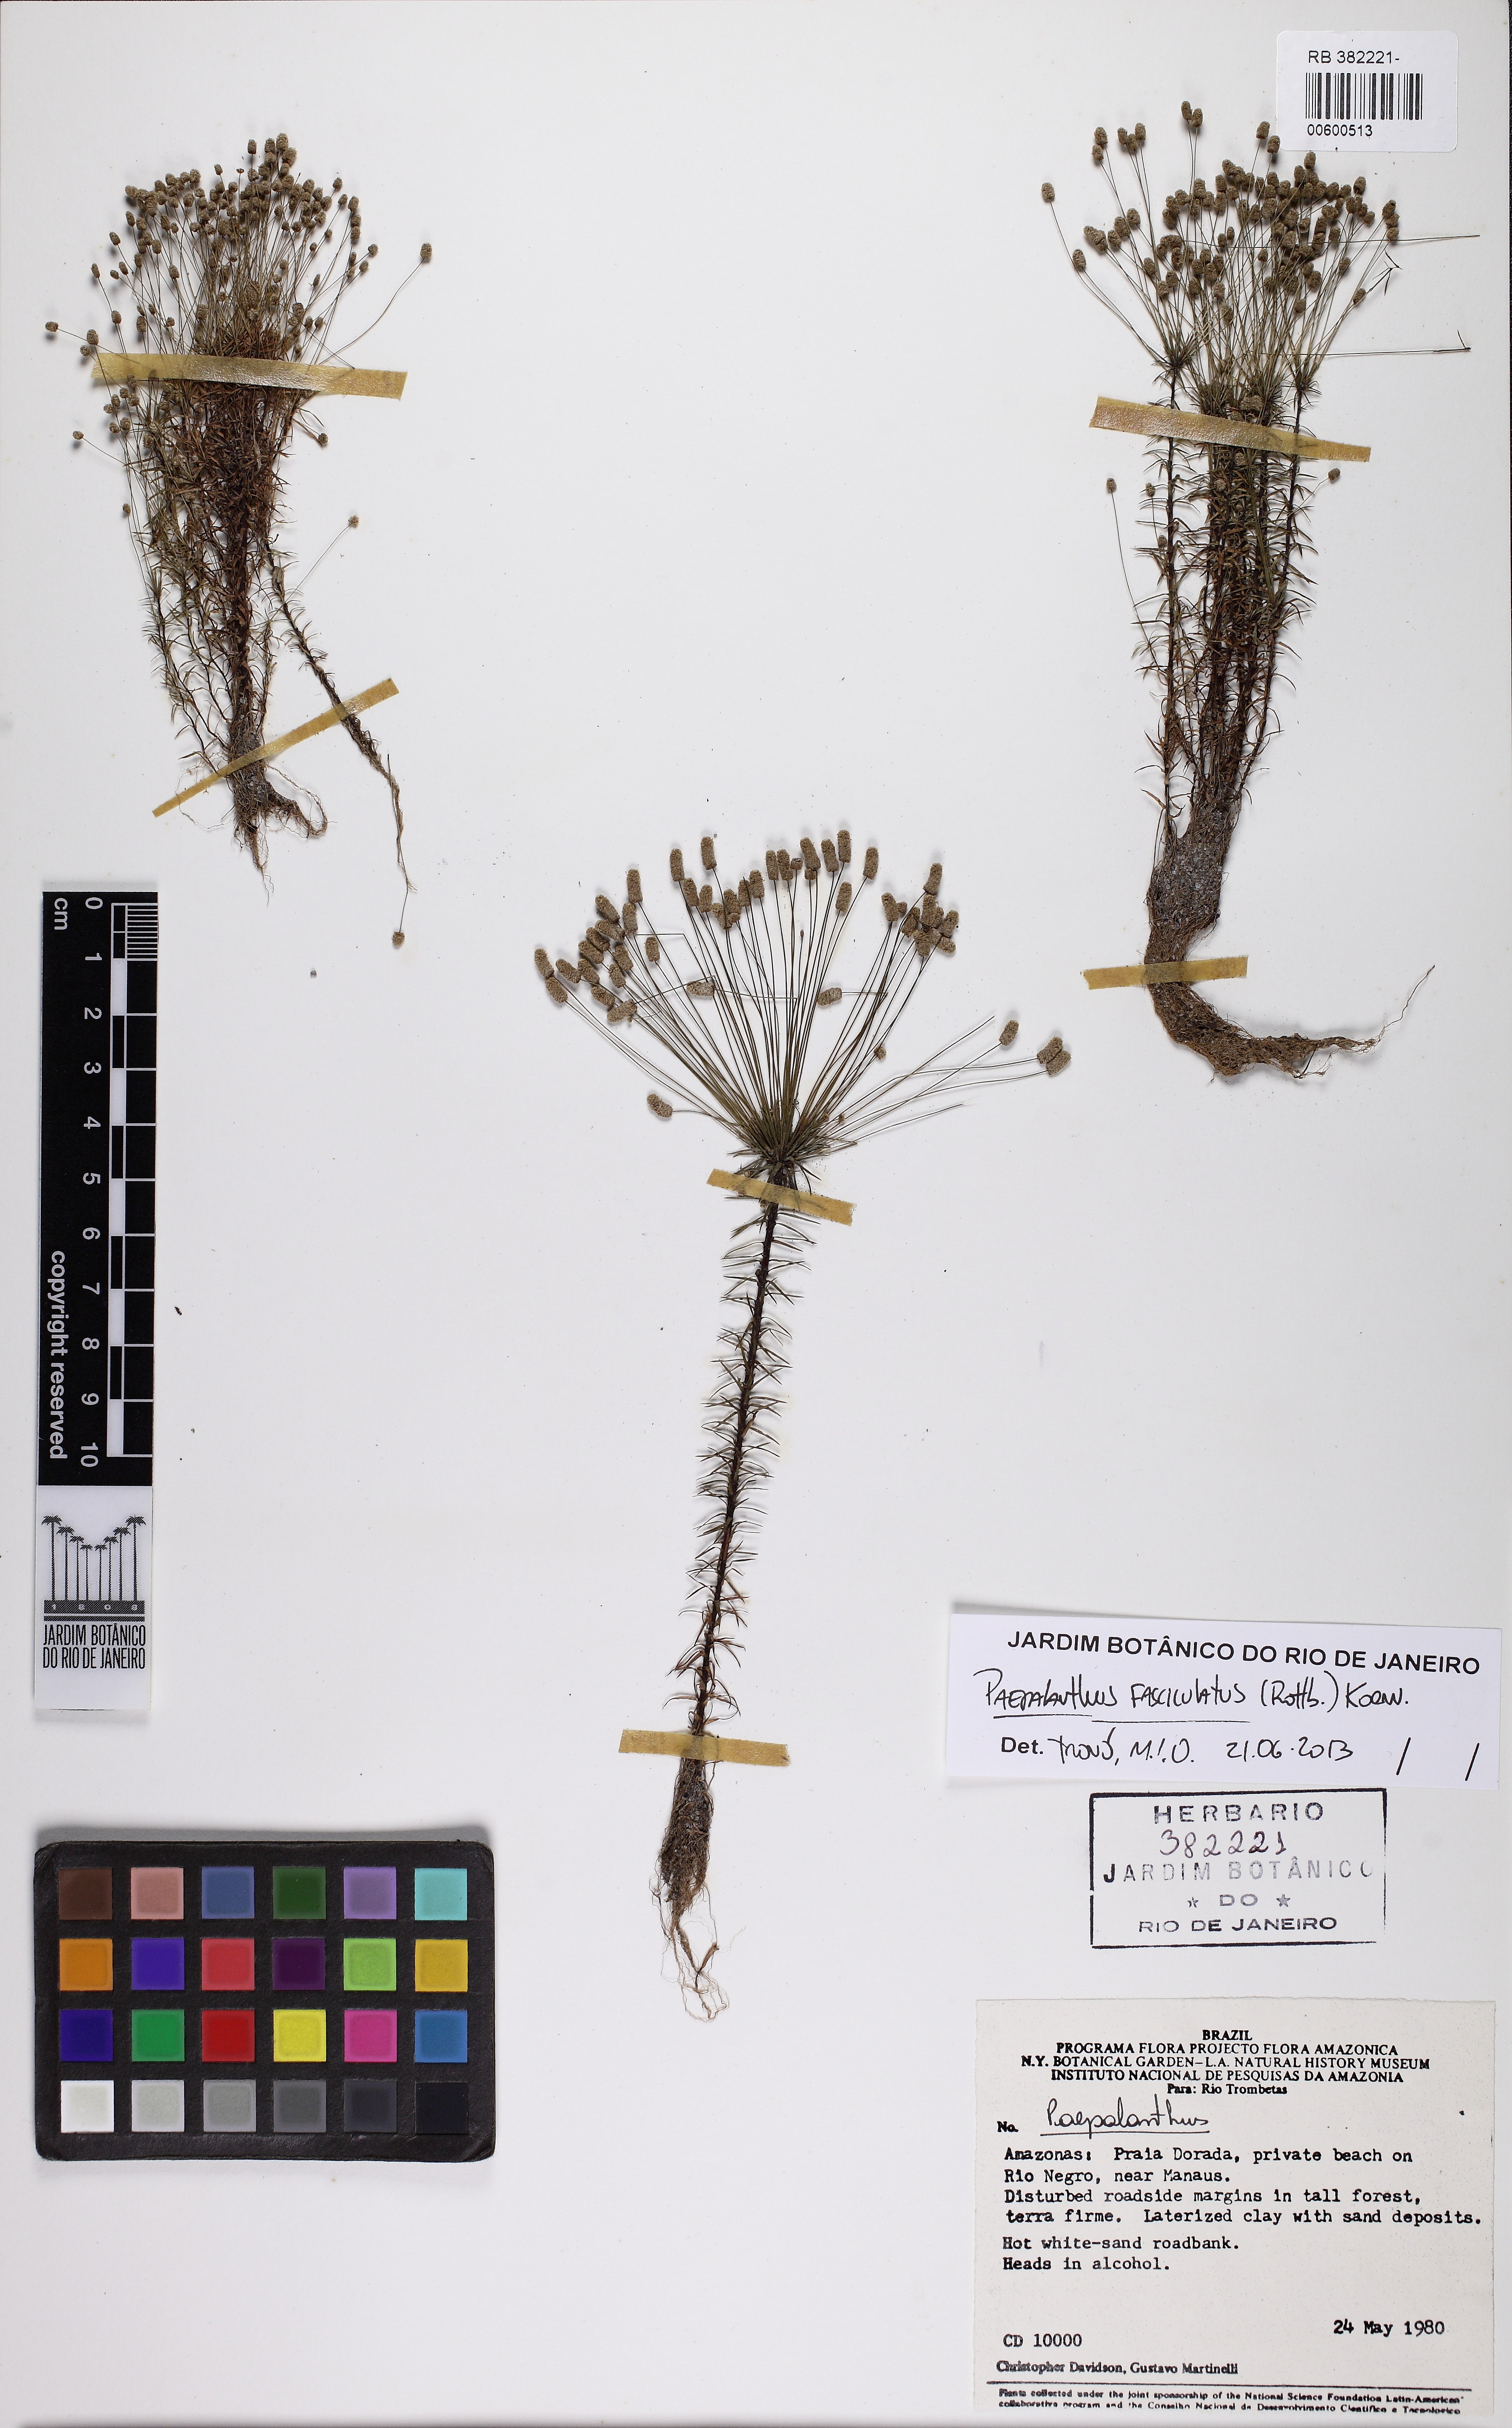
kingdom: Plantae
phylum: Tracheophyta
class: Liliopsida
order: Poales
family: Eriocaulaceae
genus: Paepalanthus
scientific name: Paepalanthus fasciculatus
